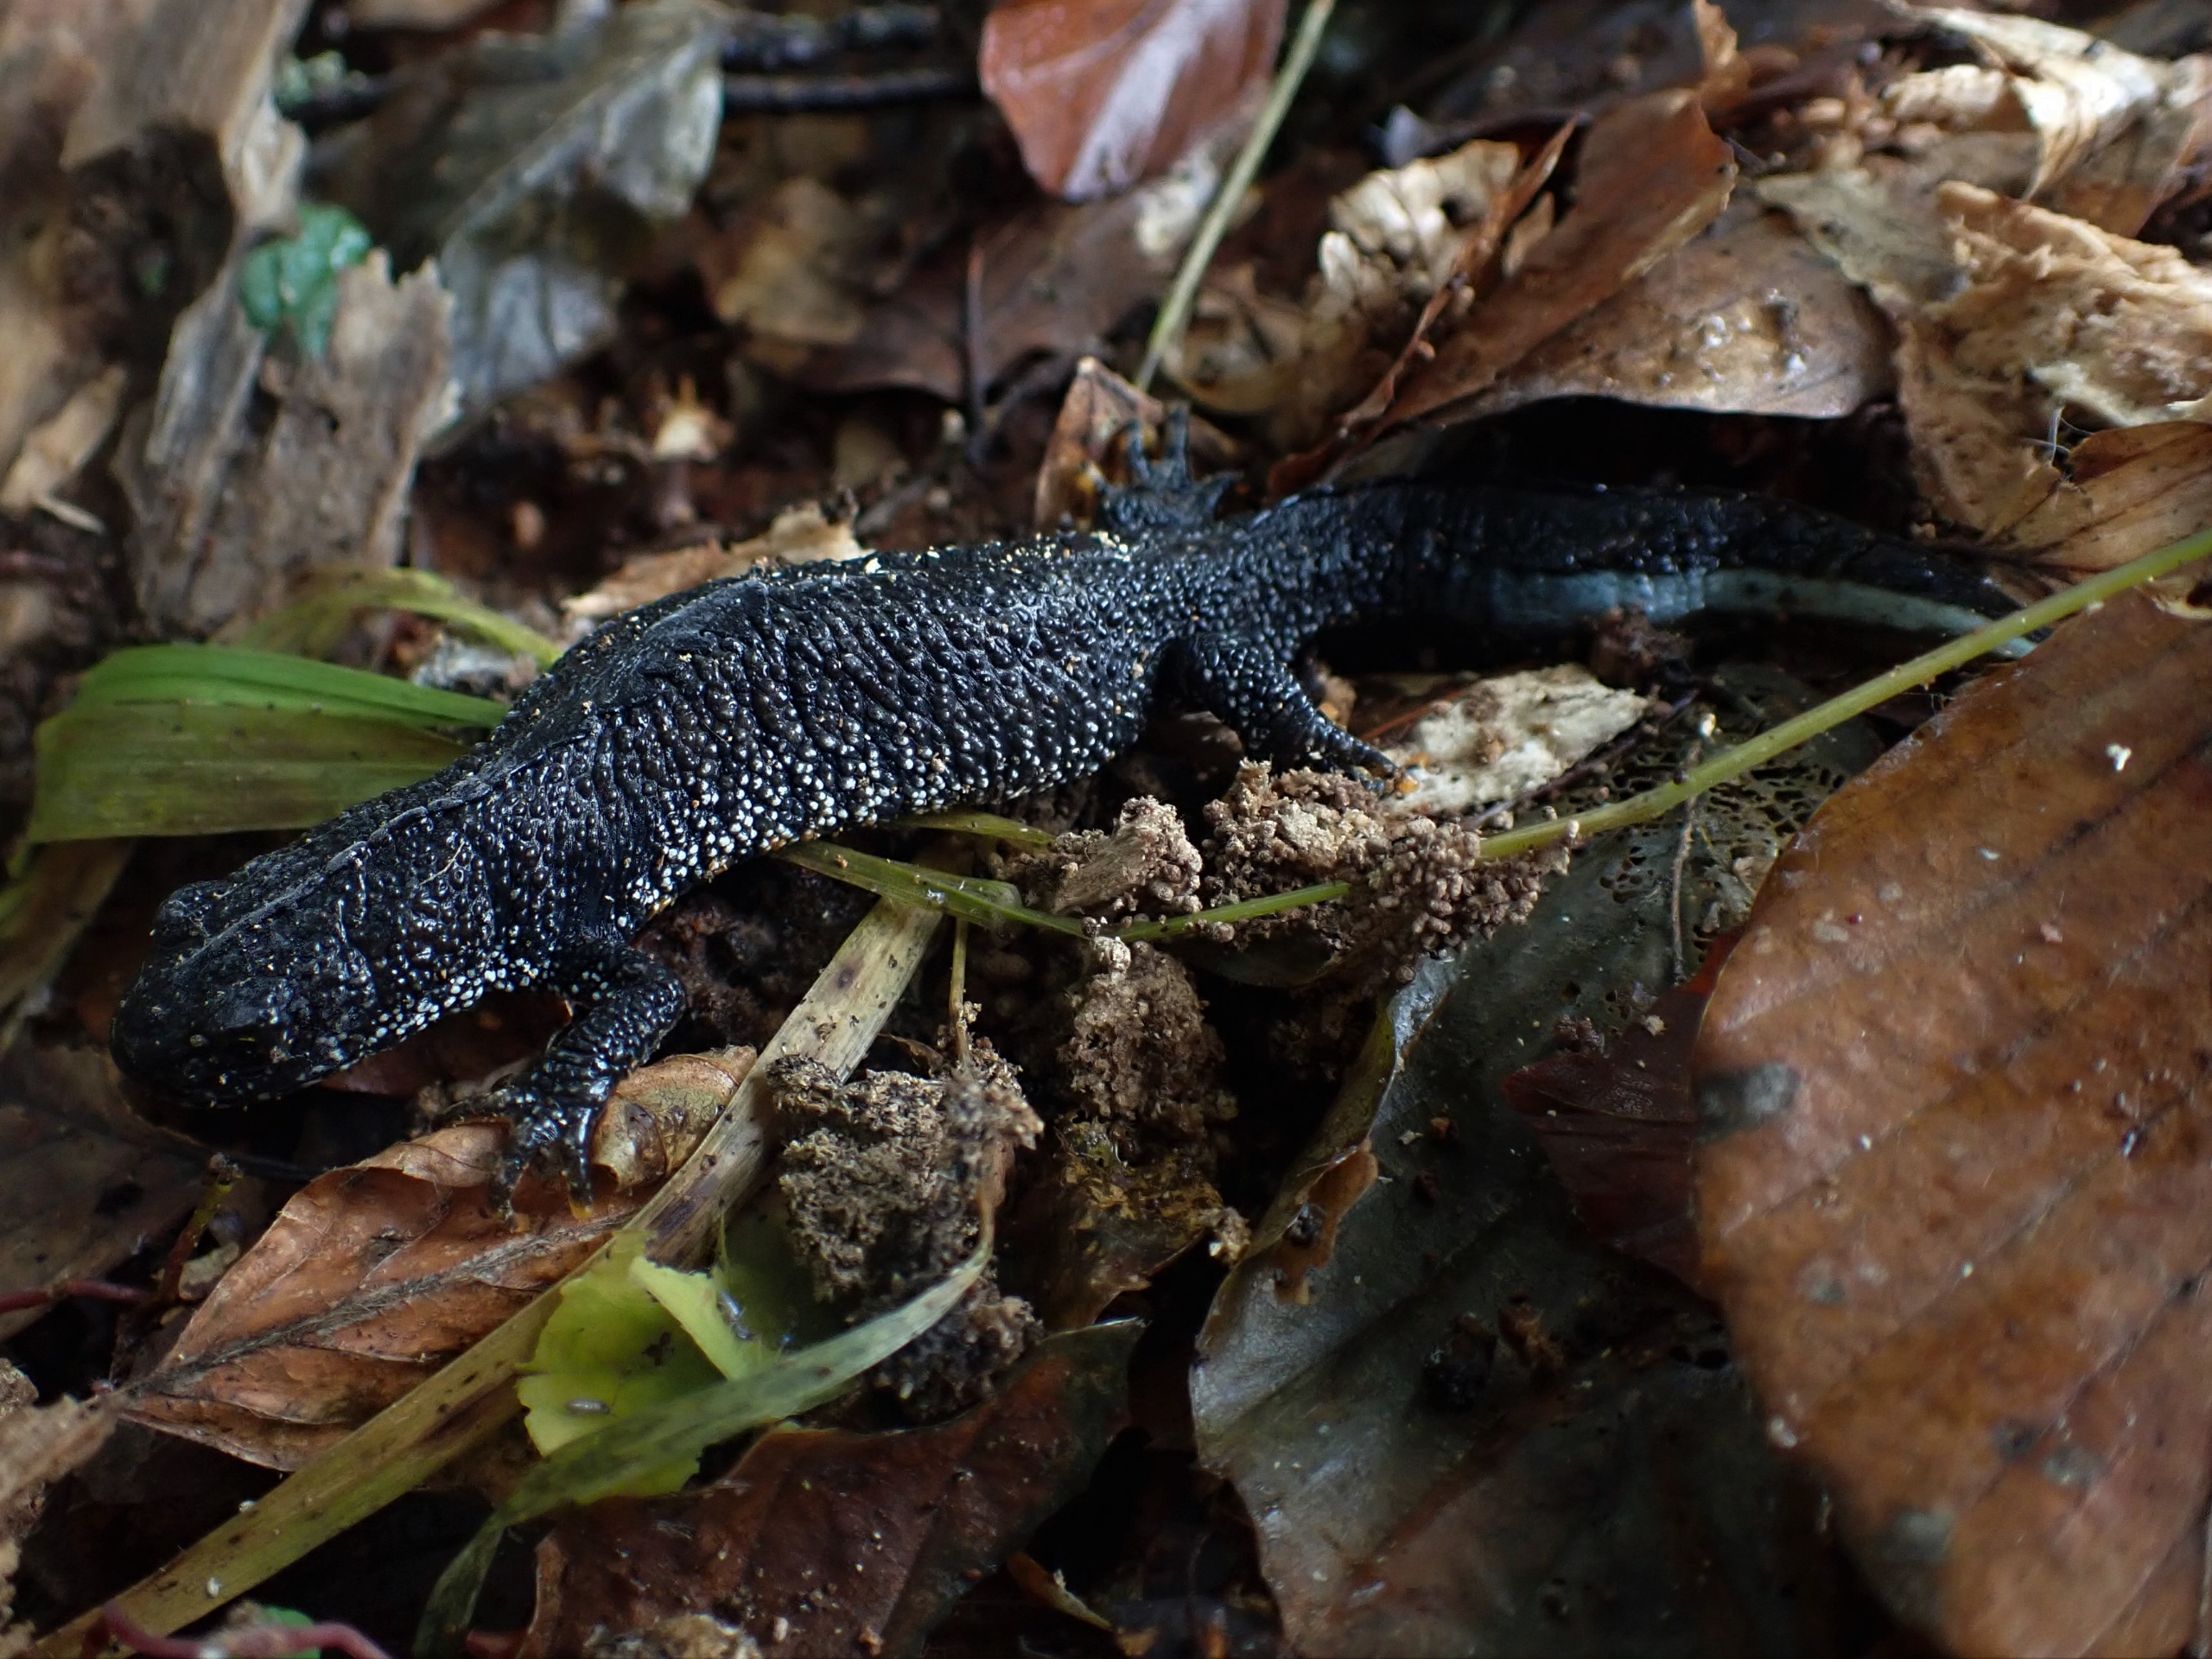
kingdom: Animalia
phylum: Chordata
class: Amphibia
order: Caudata
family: Salamandridae
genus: Triturus
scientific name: Triturus cristatus
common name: Stor vandsalamander
